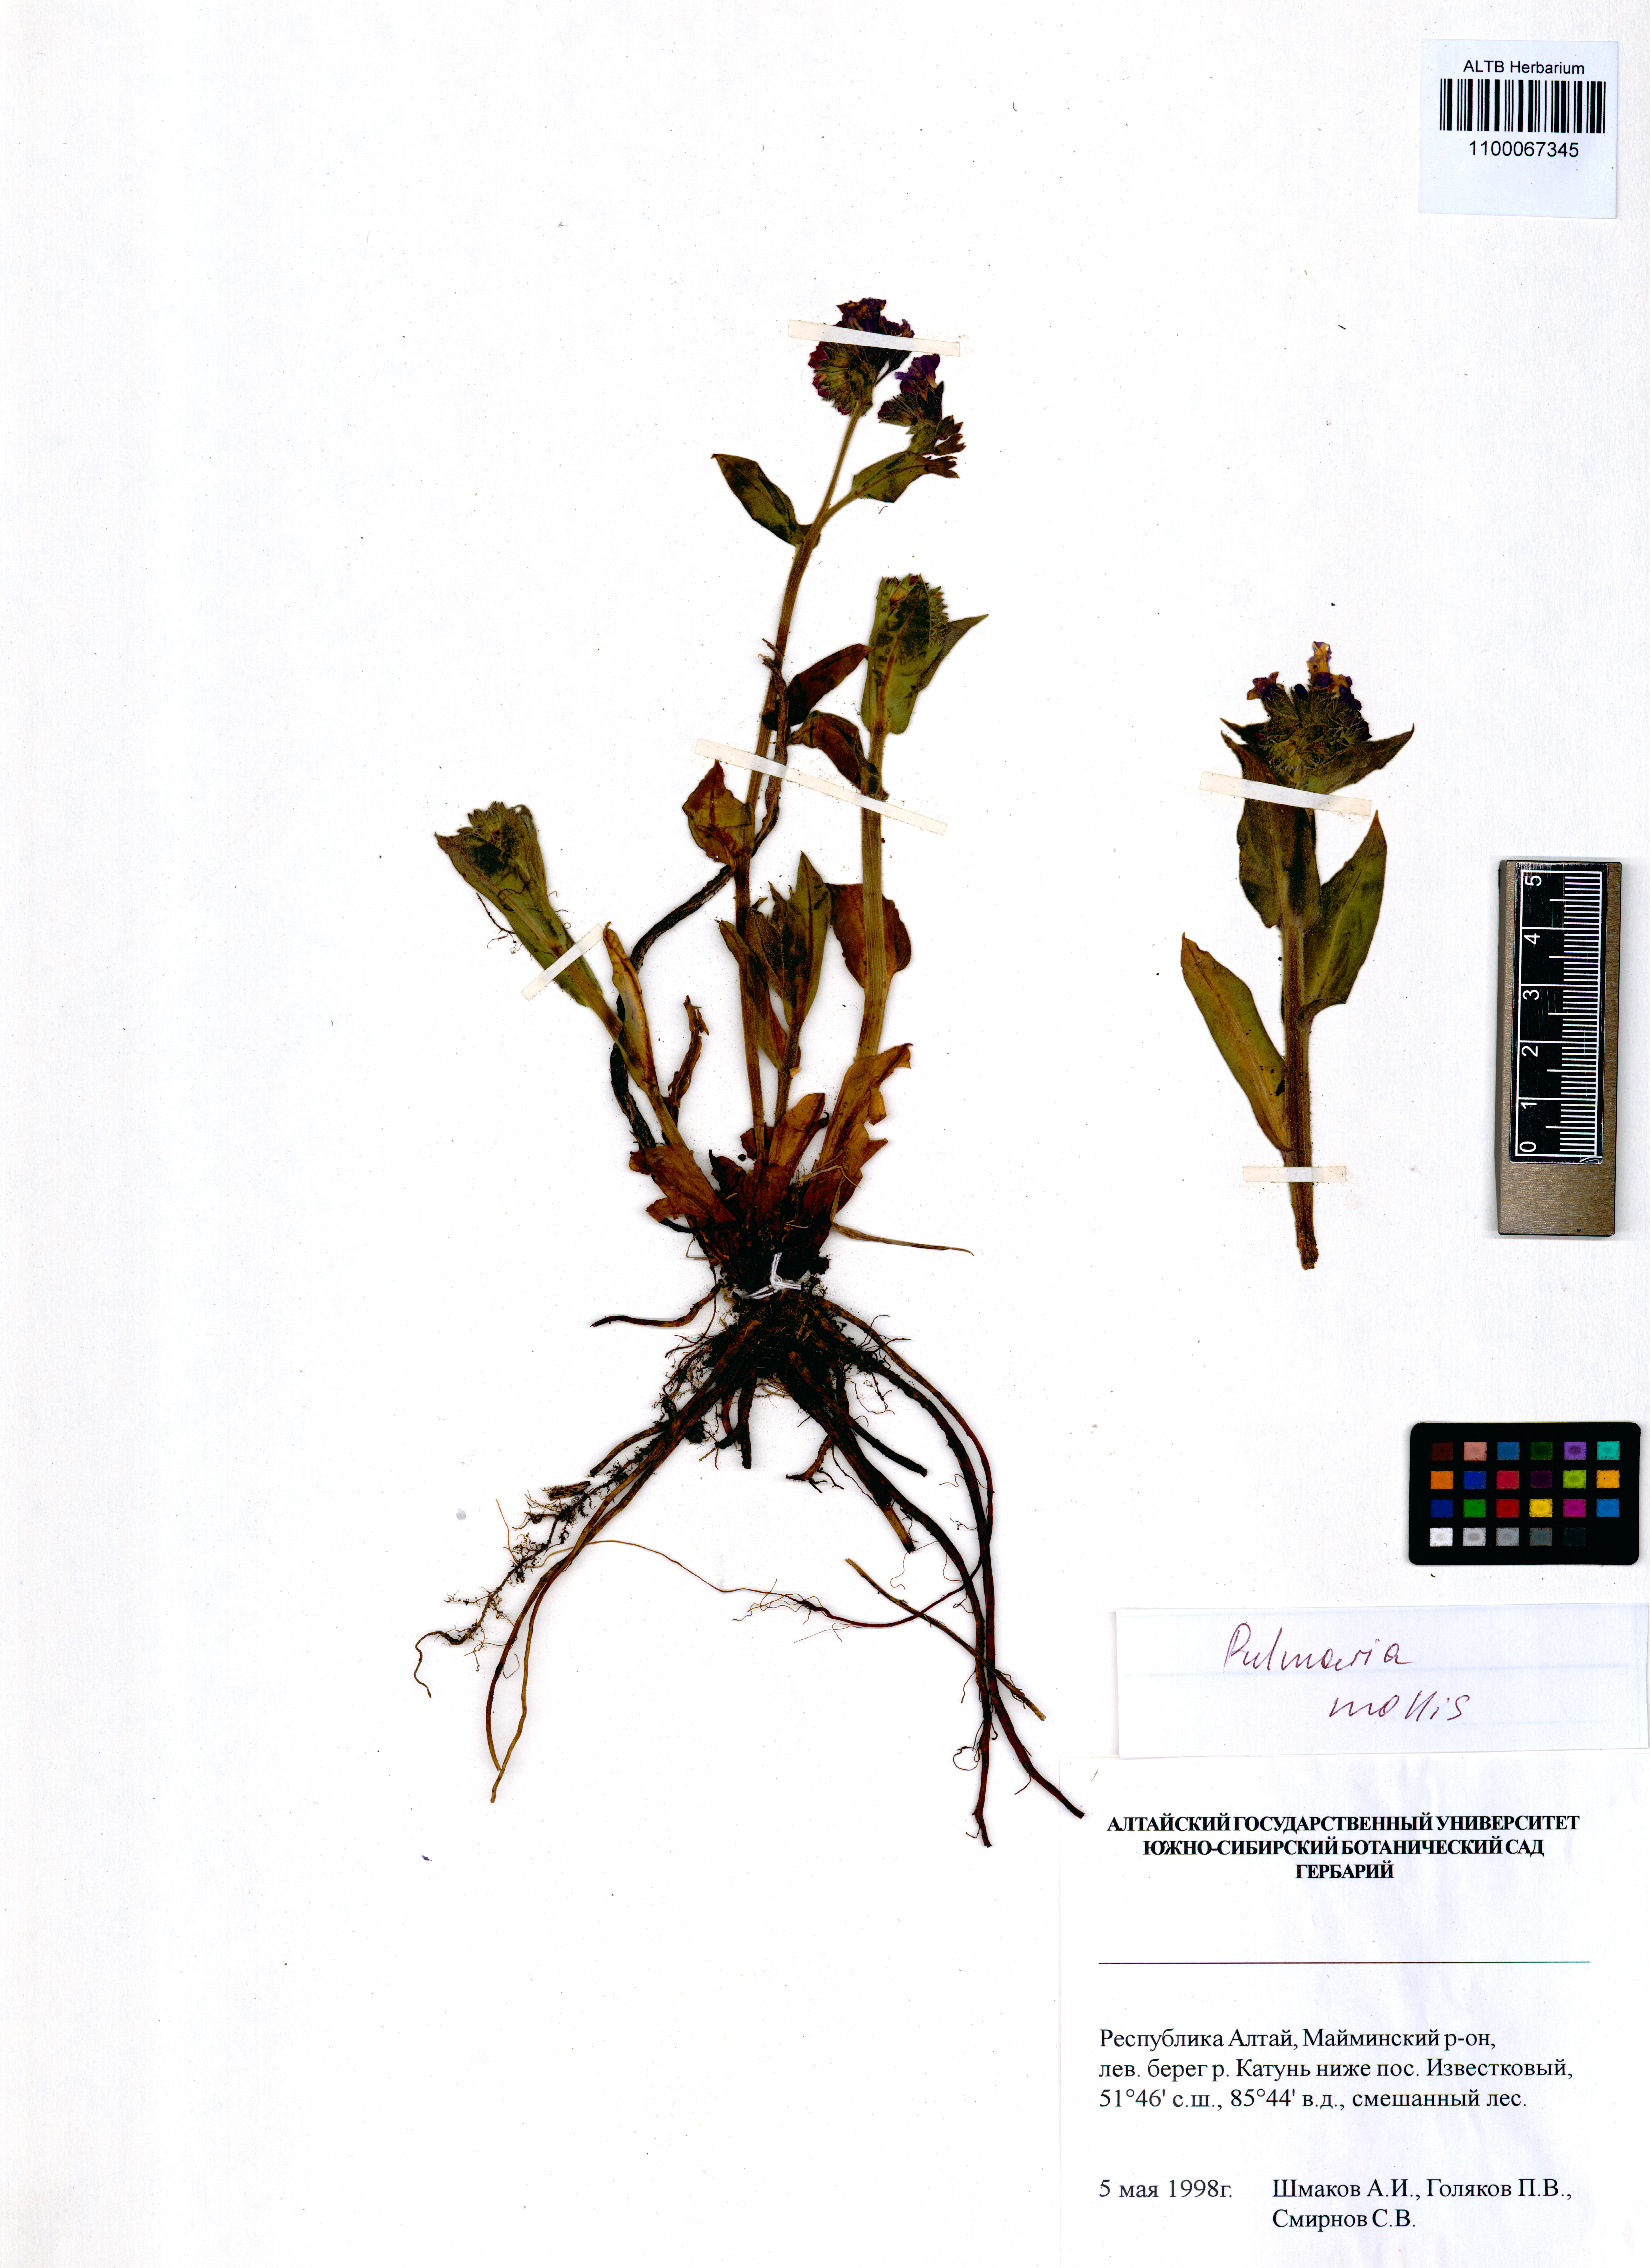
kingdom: Plantae
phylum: Tracheophyta
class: Magnoliopsida
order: Boraginales
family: Boraginaceae
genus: Pulmonaria
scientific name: Pulmonaria mollis
